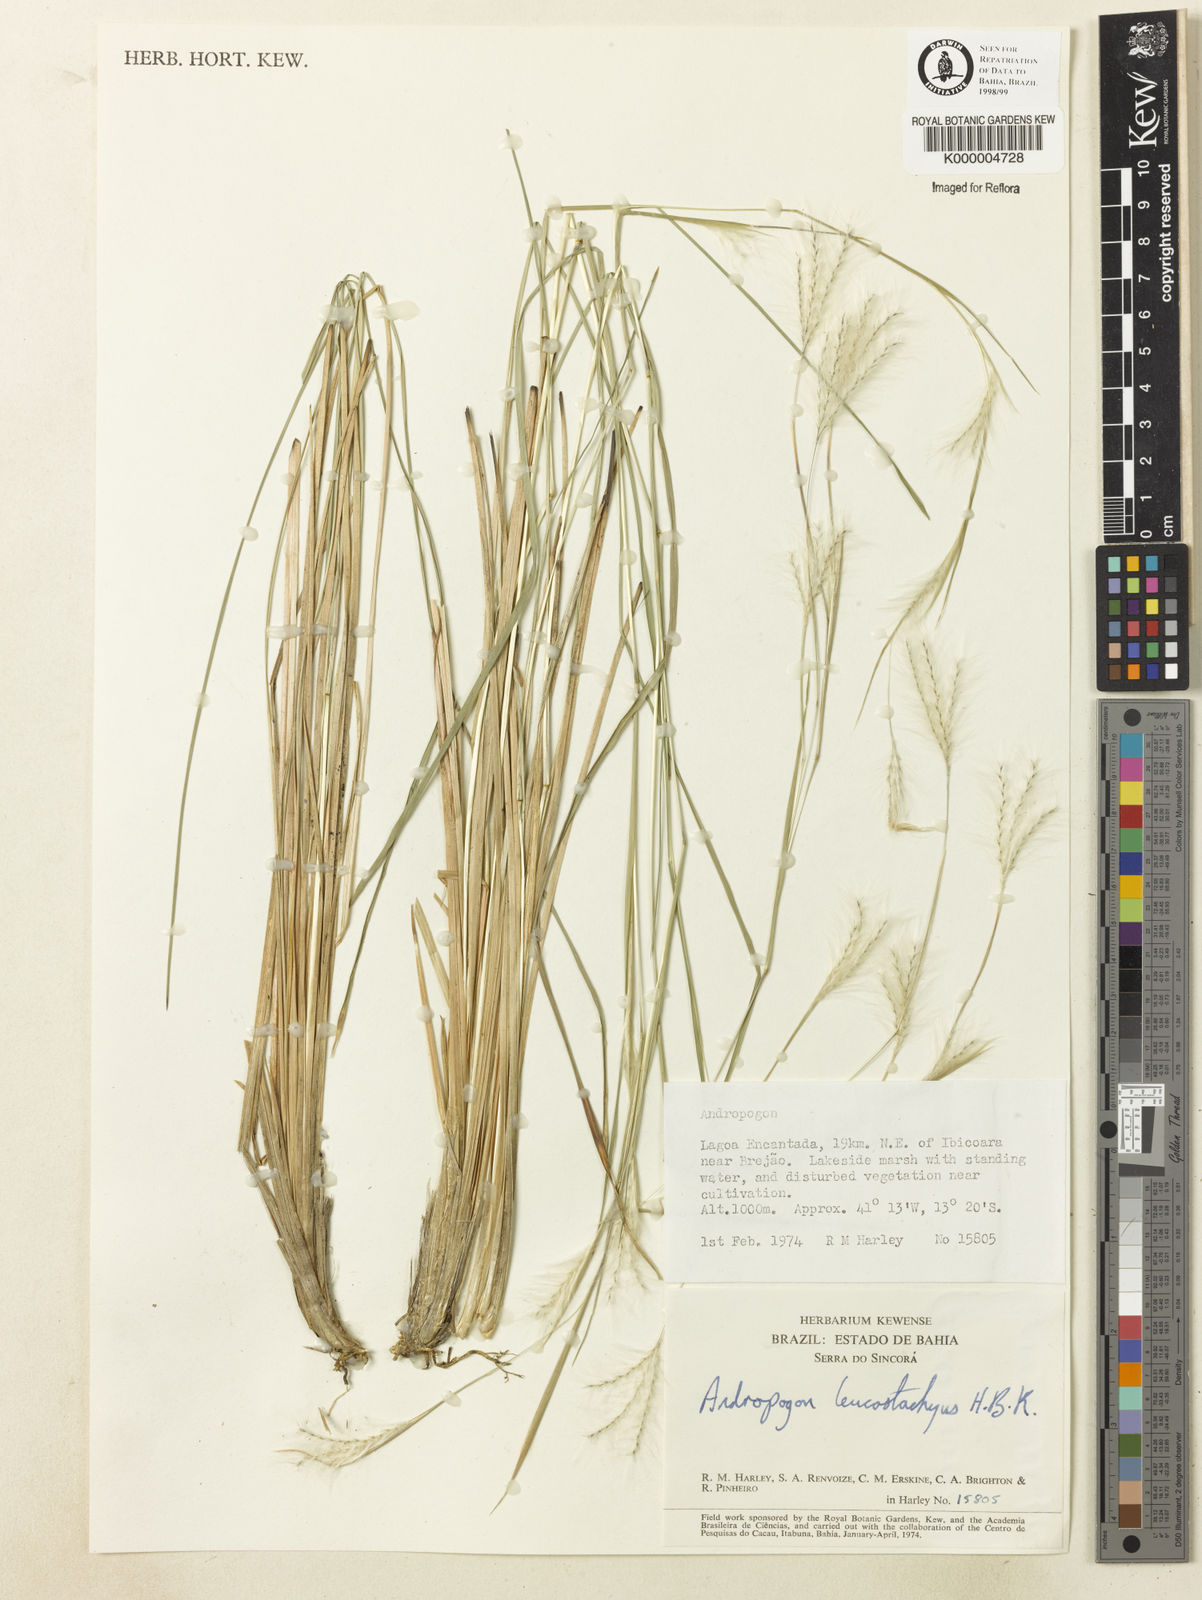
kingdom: Plantae
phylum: Tracheophyta
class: Liliopsida
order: Poales
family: Poaceae
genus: Andropogon
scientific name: Andropogon leucostachyus
